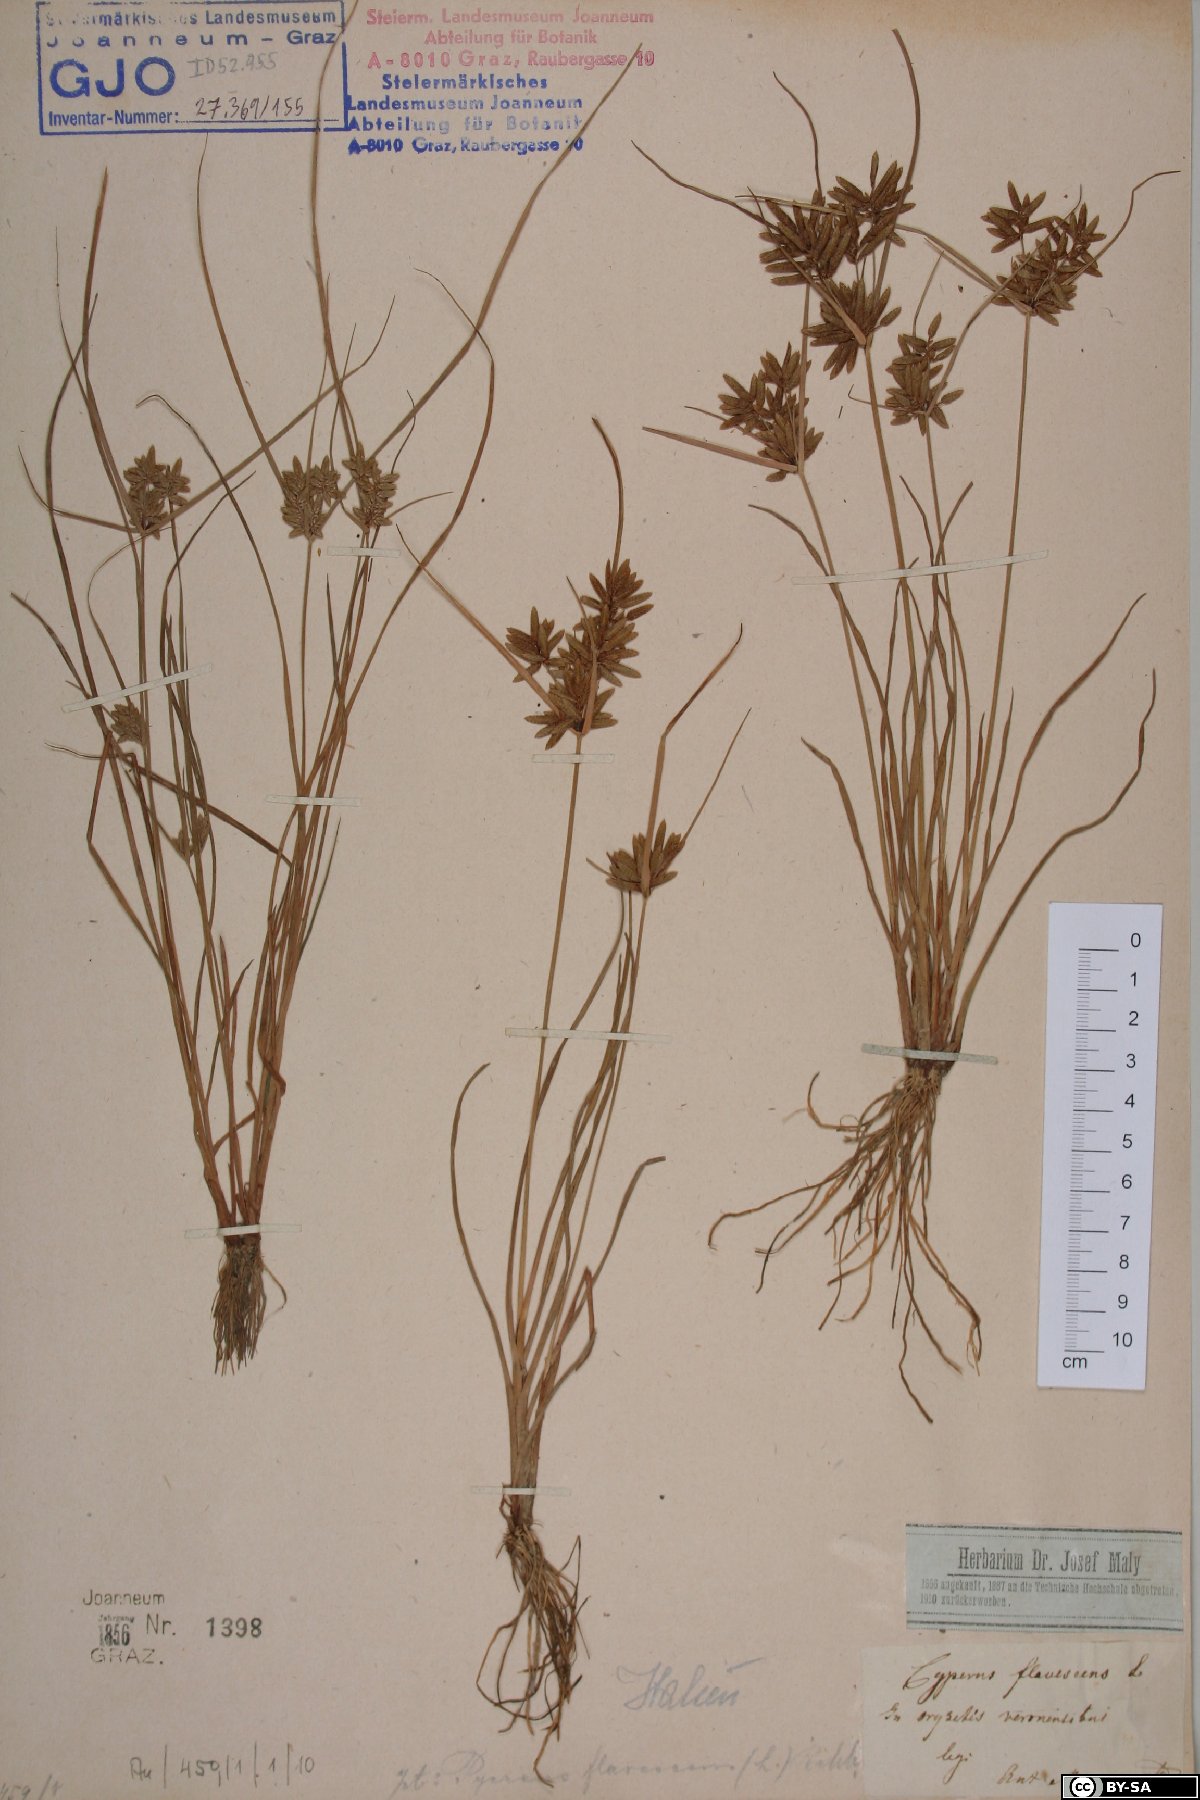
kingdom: Plantae
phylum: Tracheophyta
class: Liliopsida
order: Poales
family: Cyperaceae
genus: Cyperus
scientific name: Cyperus flavescens
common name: Yellow galingale
